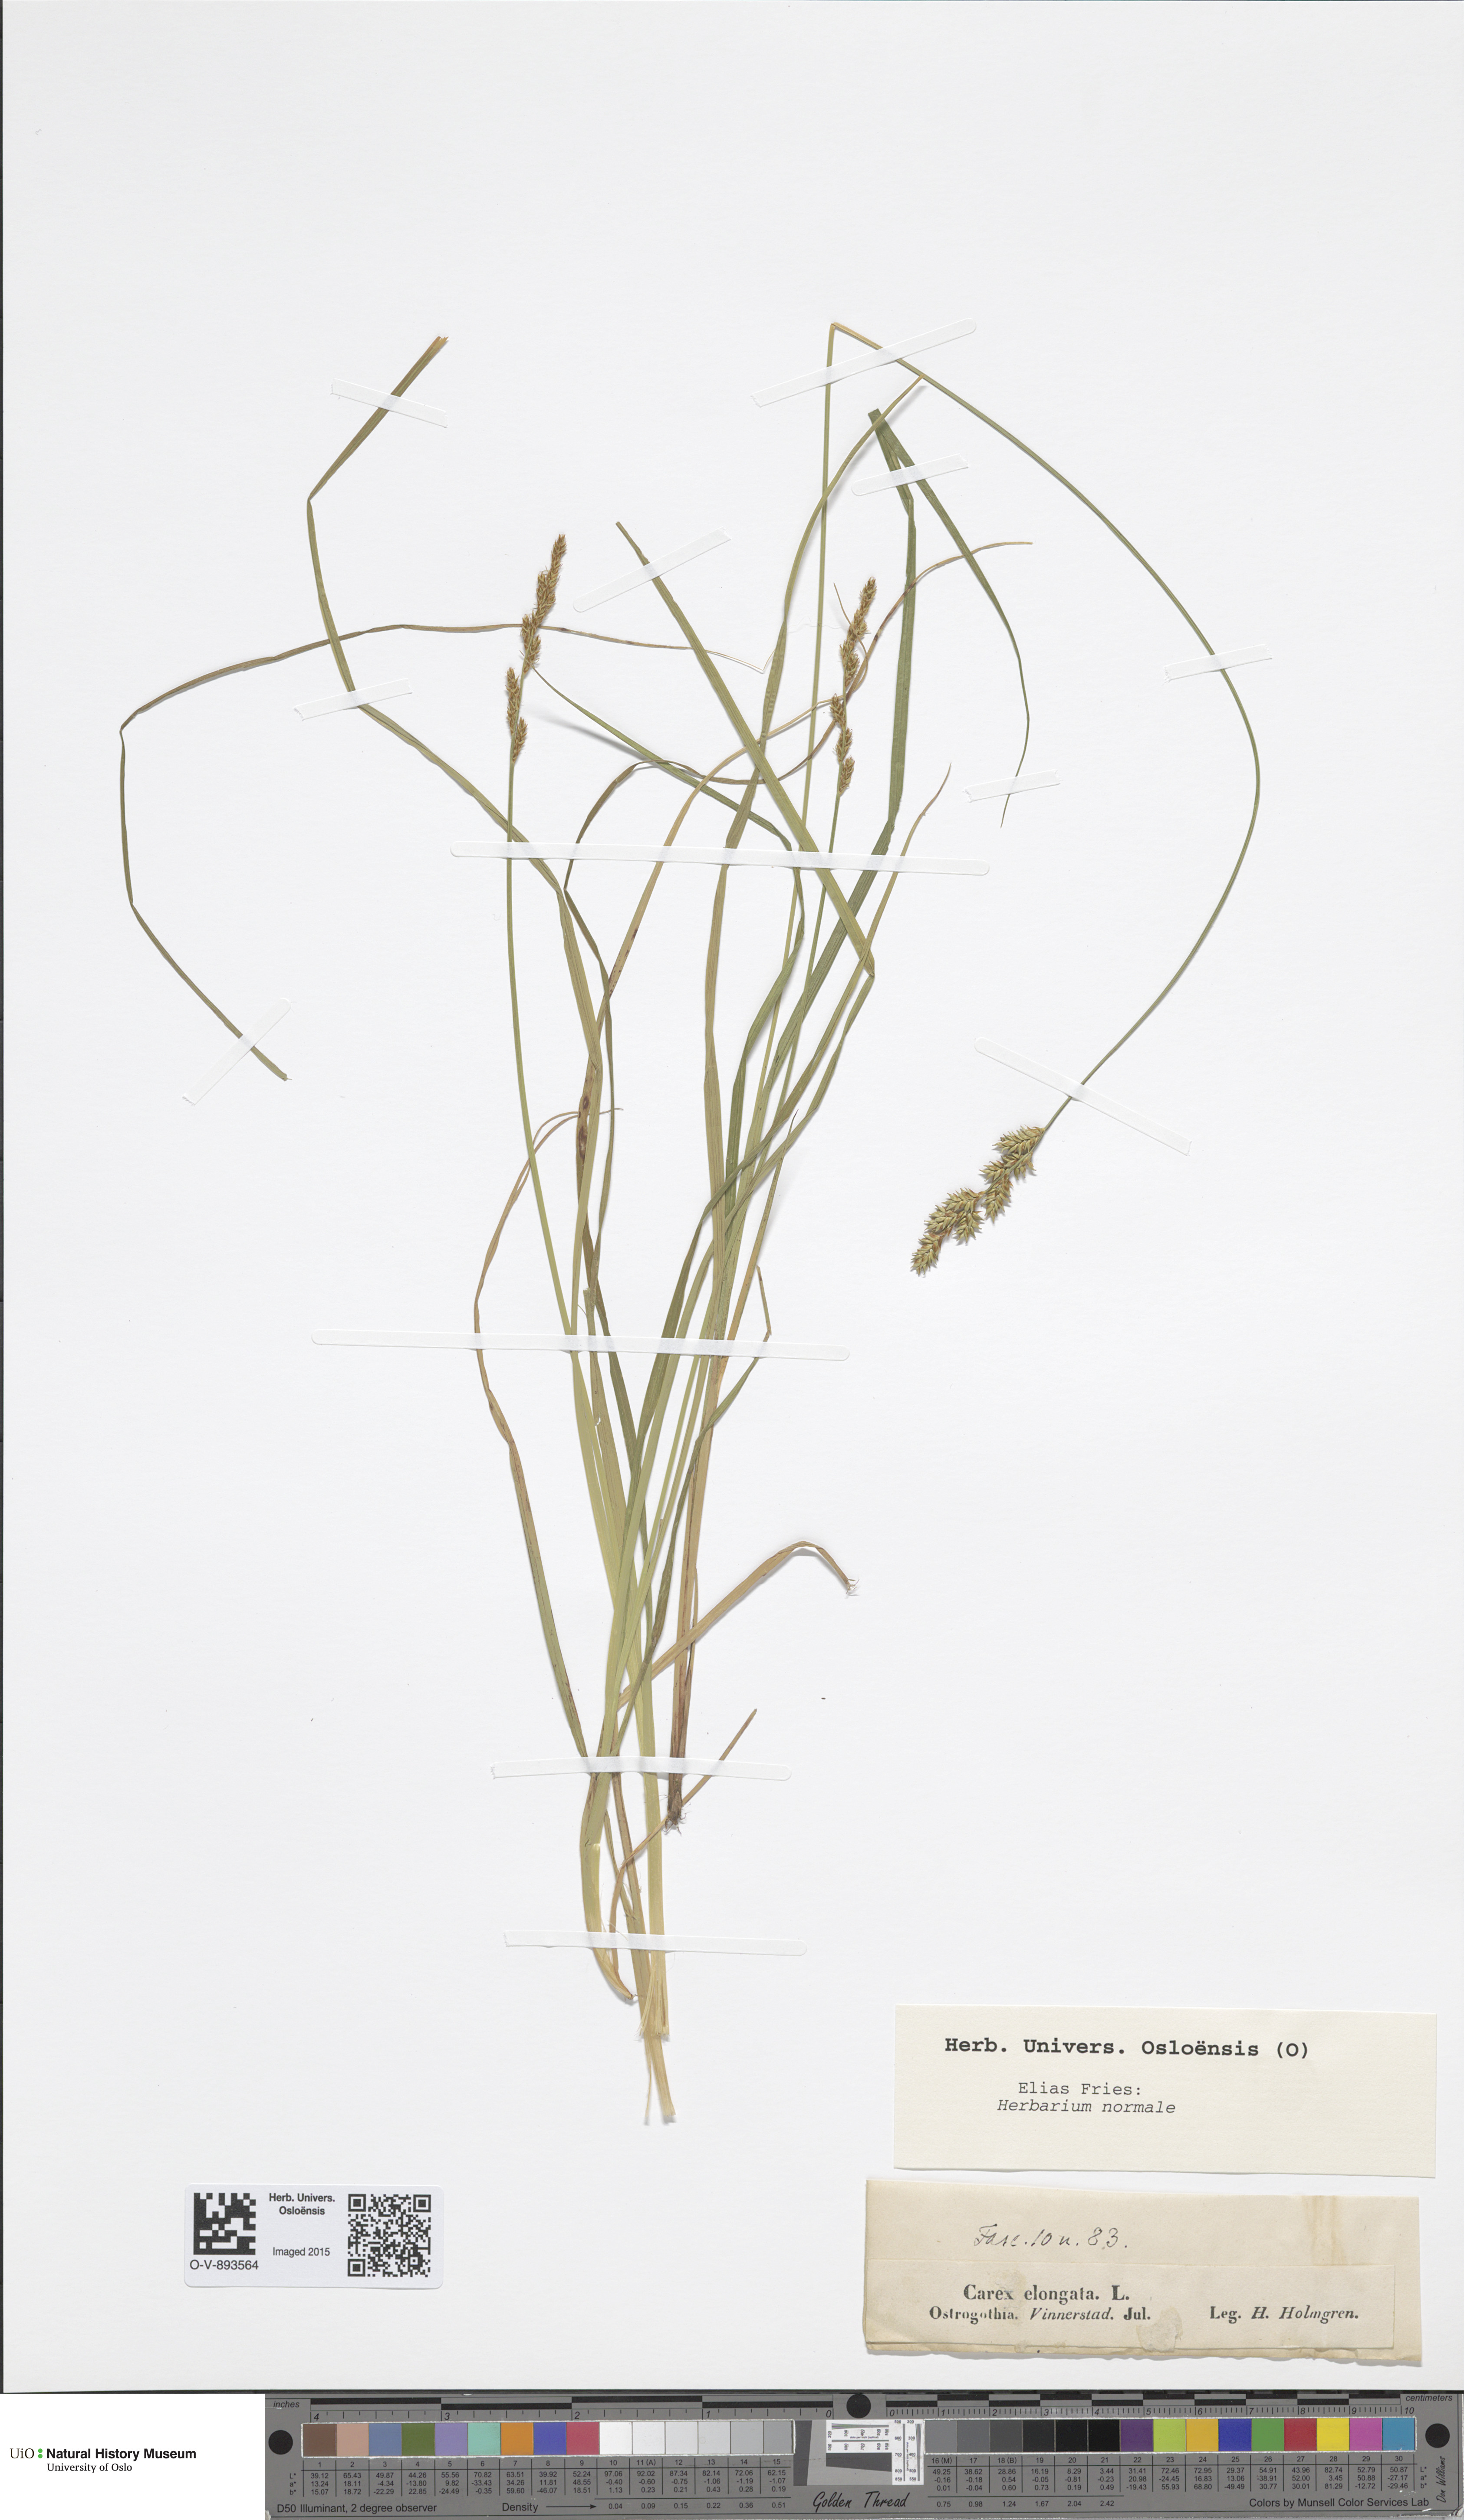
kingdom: Plantae
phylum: Tracheophyta
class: Liliopsida
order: Poales
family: Cyperaceae
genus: Carex
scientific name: Carex elongata
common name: Elongated sedge
